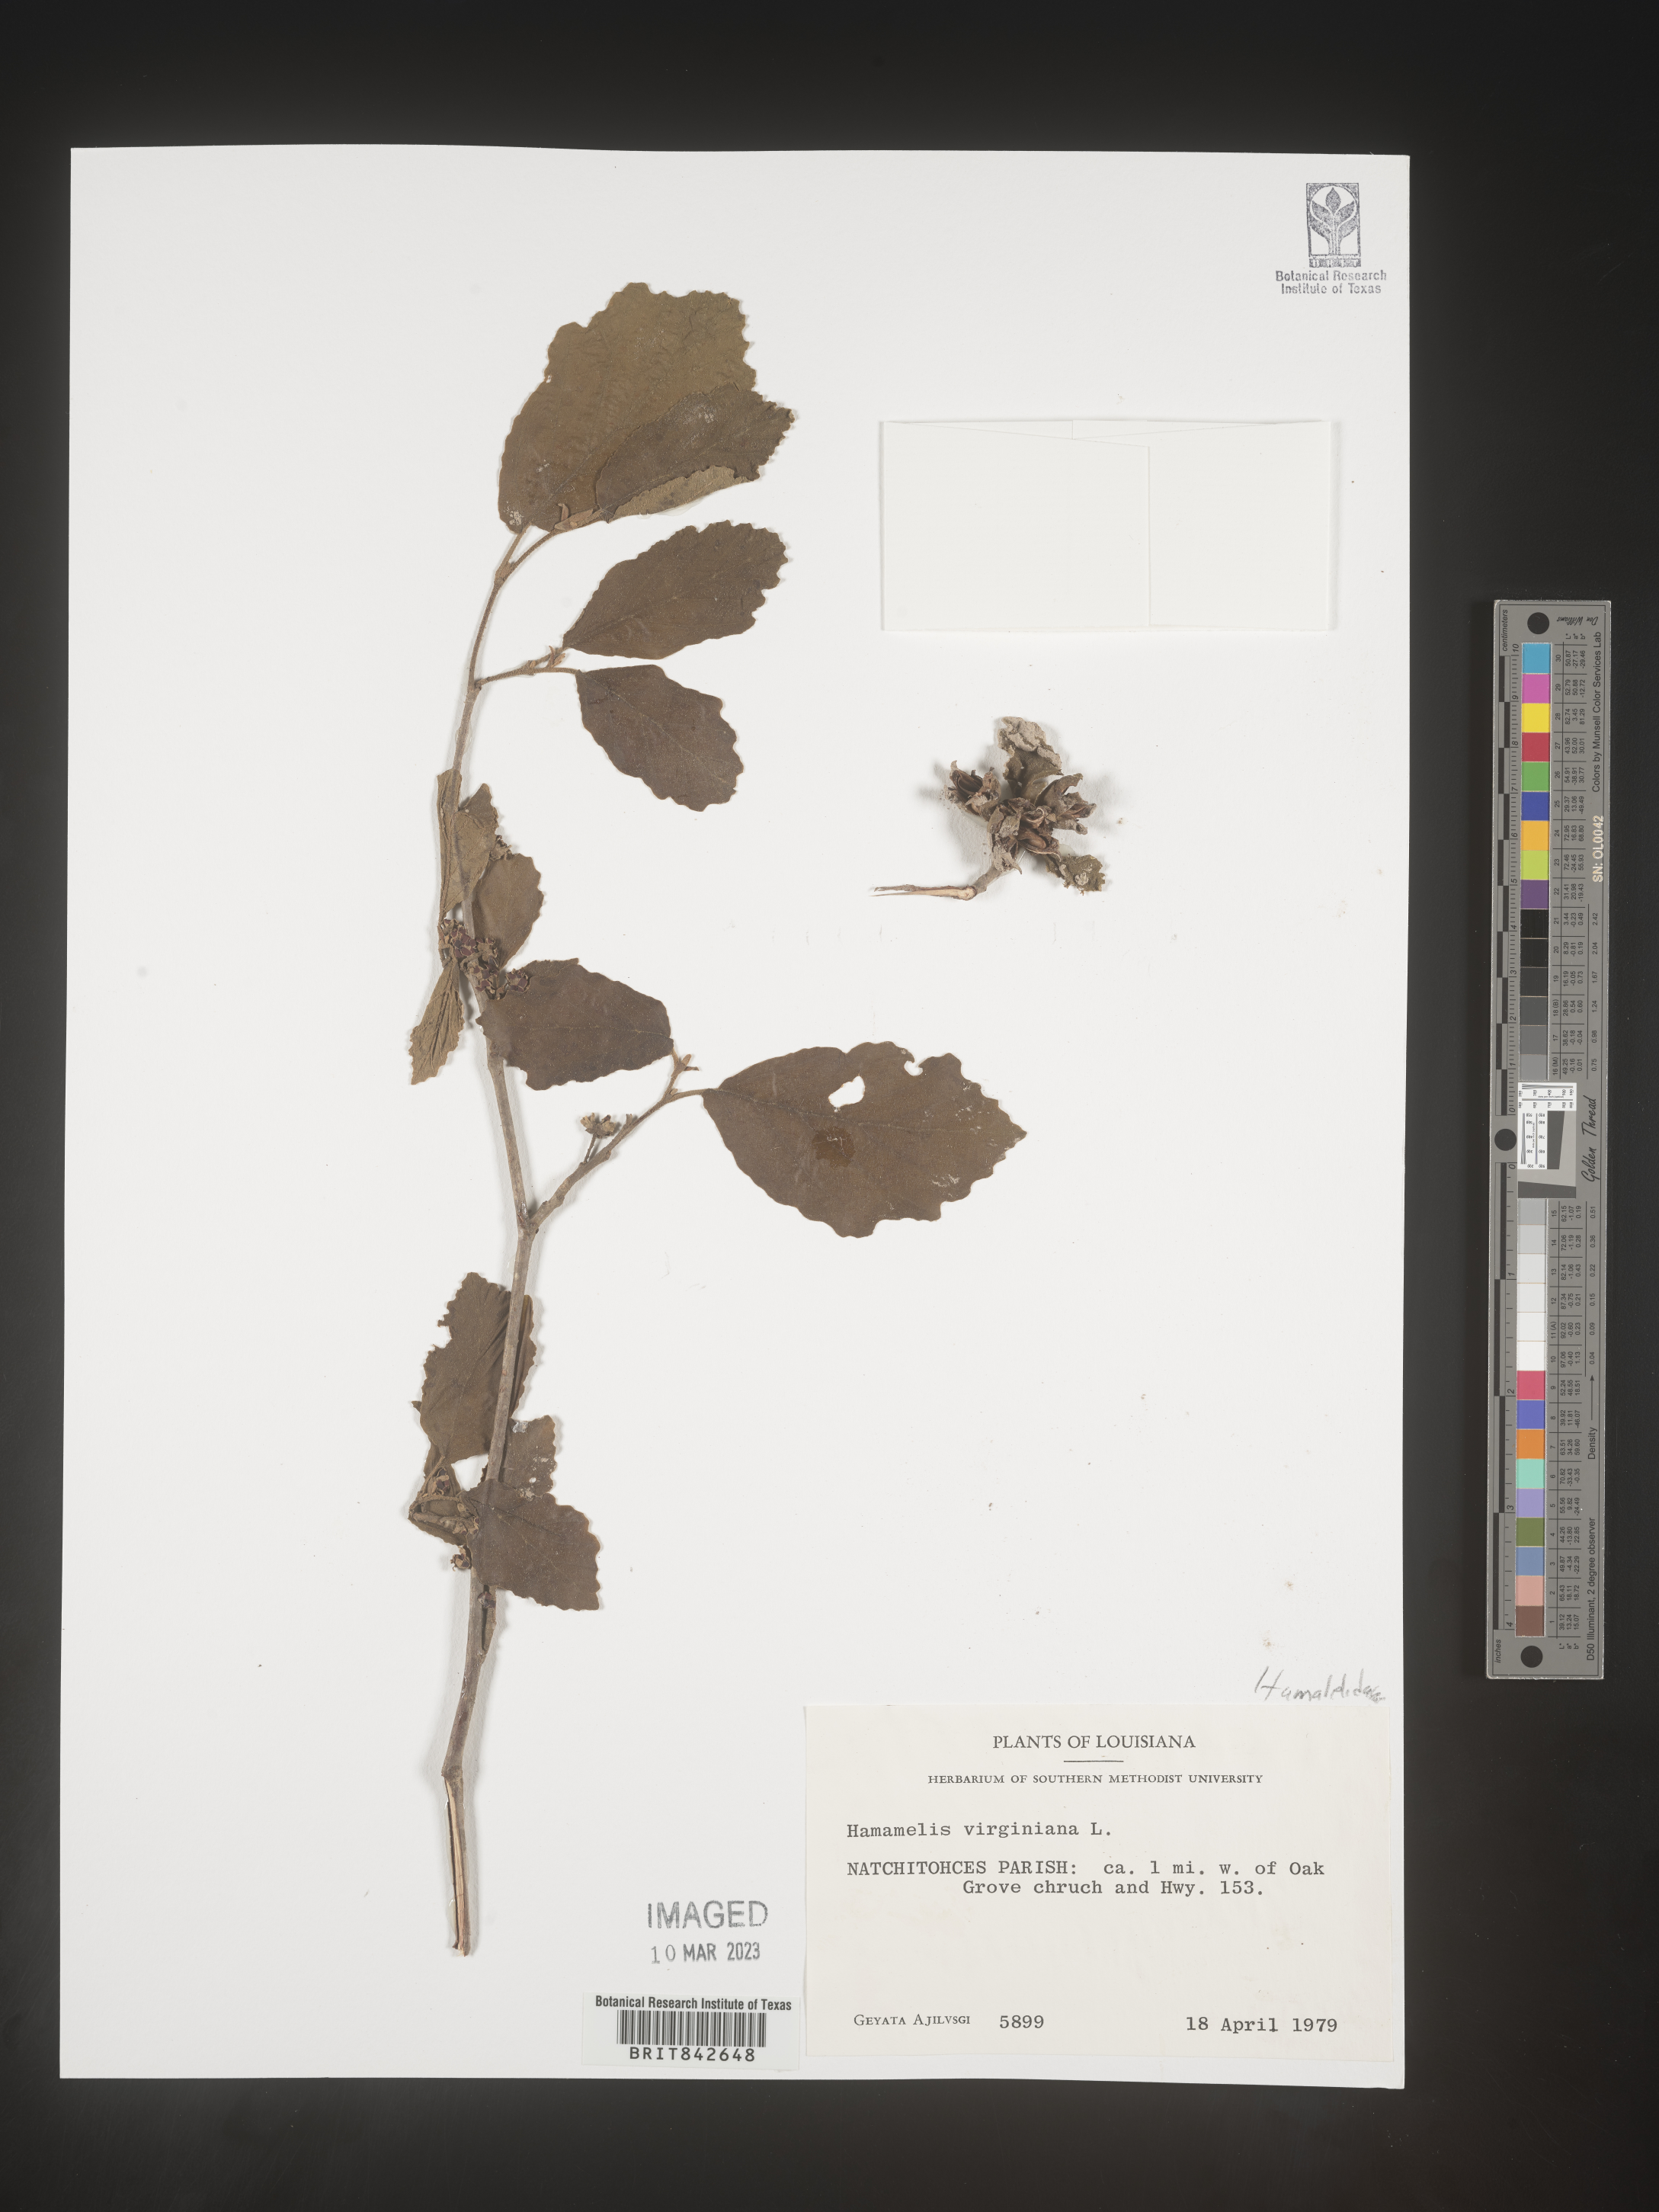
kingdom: Plantae
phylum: Tracheophyta
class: Magnoliopsida
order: Saxifragales
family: Hamamelidaceae
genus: Hamamelis
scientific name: Hamamelis virginiana
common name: Witch-hazel
